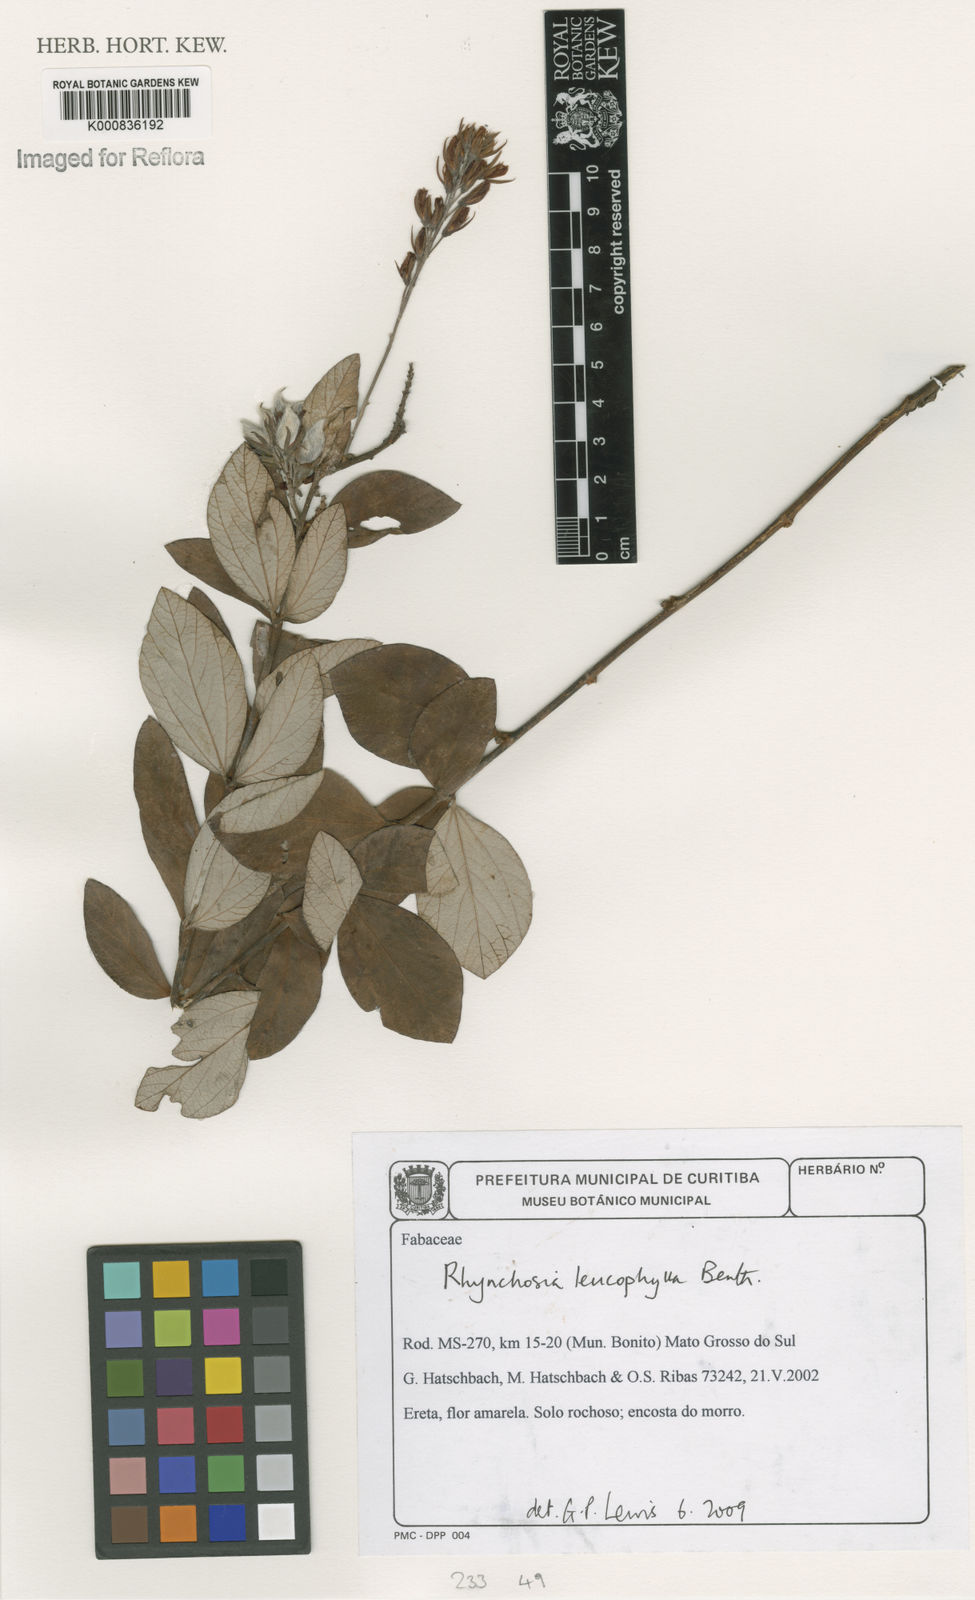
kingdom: Plantae
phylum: Tracheophyta
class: Magnoliopsida
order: Fabales
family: Fabaceae
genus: Rhynchosia
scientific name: Rhynchosia leucophylla
